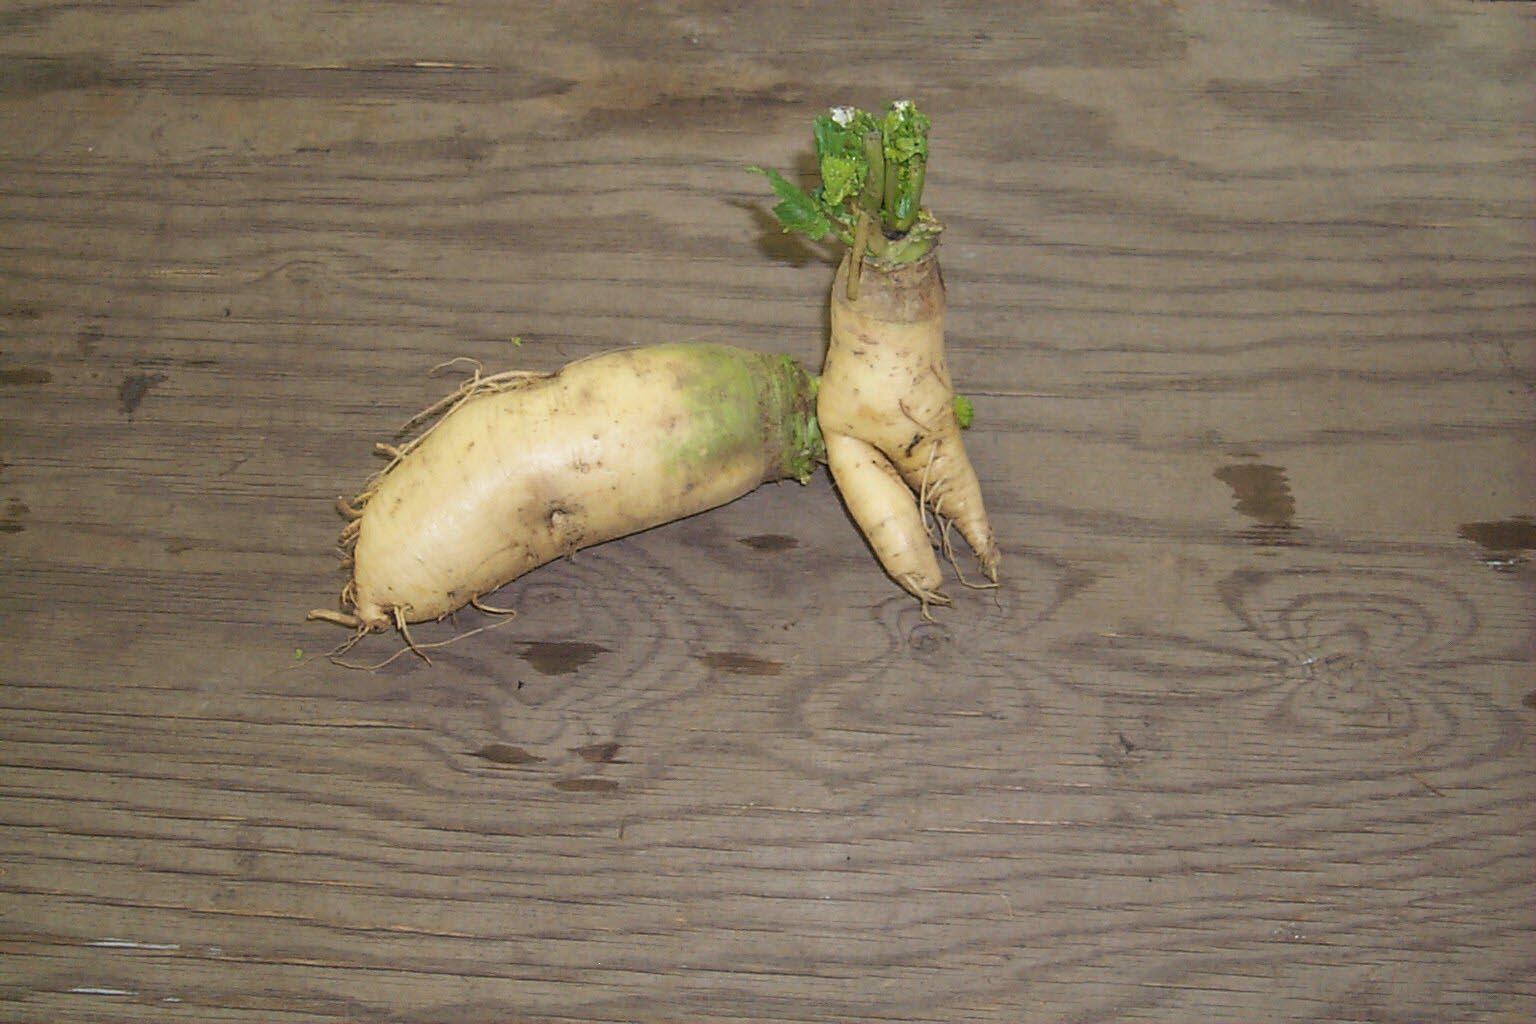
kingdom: Plantae
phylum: Tracheophyta
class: Magnoliopsida
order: Brassicales
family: Brassicaceae
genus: Brassica
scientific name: Brassica rapa
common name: Field mustard
